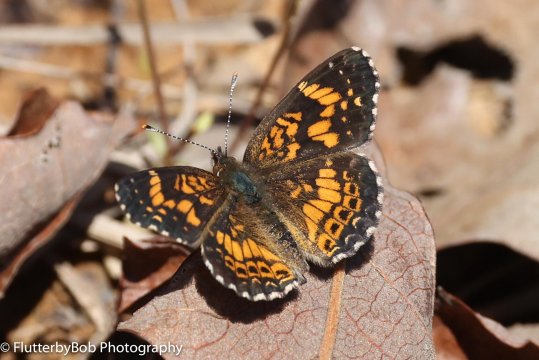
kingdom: Animalia
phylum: Arthropoda
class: Insecta
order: Lepidoptera
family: Nymphalidae
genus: Chlosyne
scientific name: Chlosyne nycteis
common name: Silvery Checkerspot
